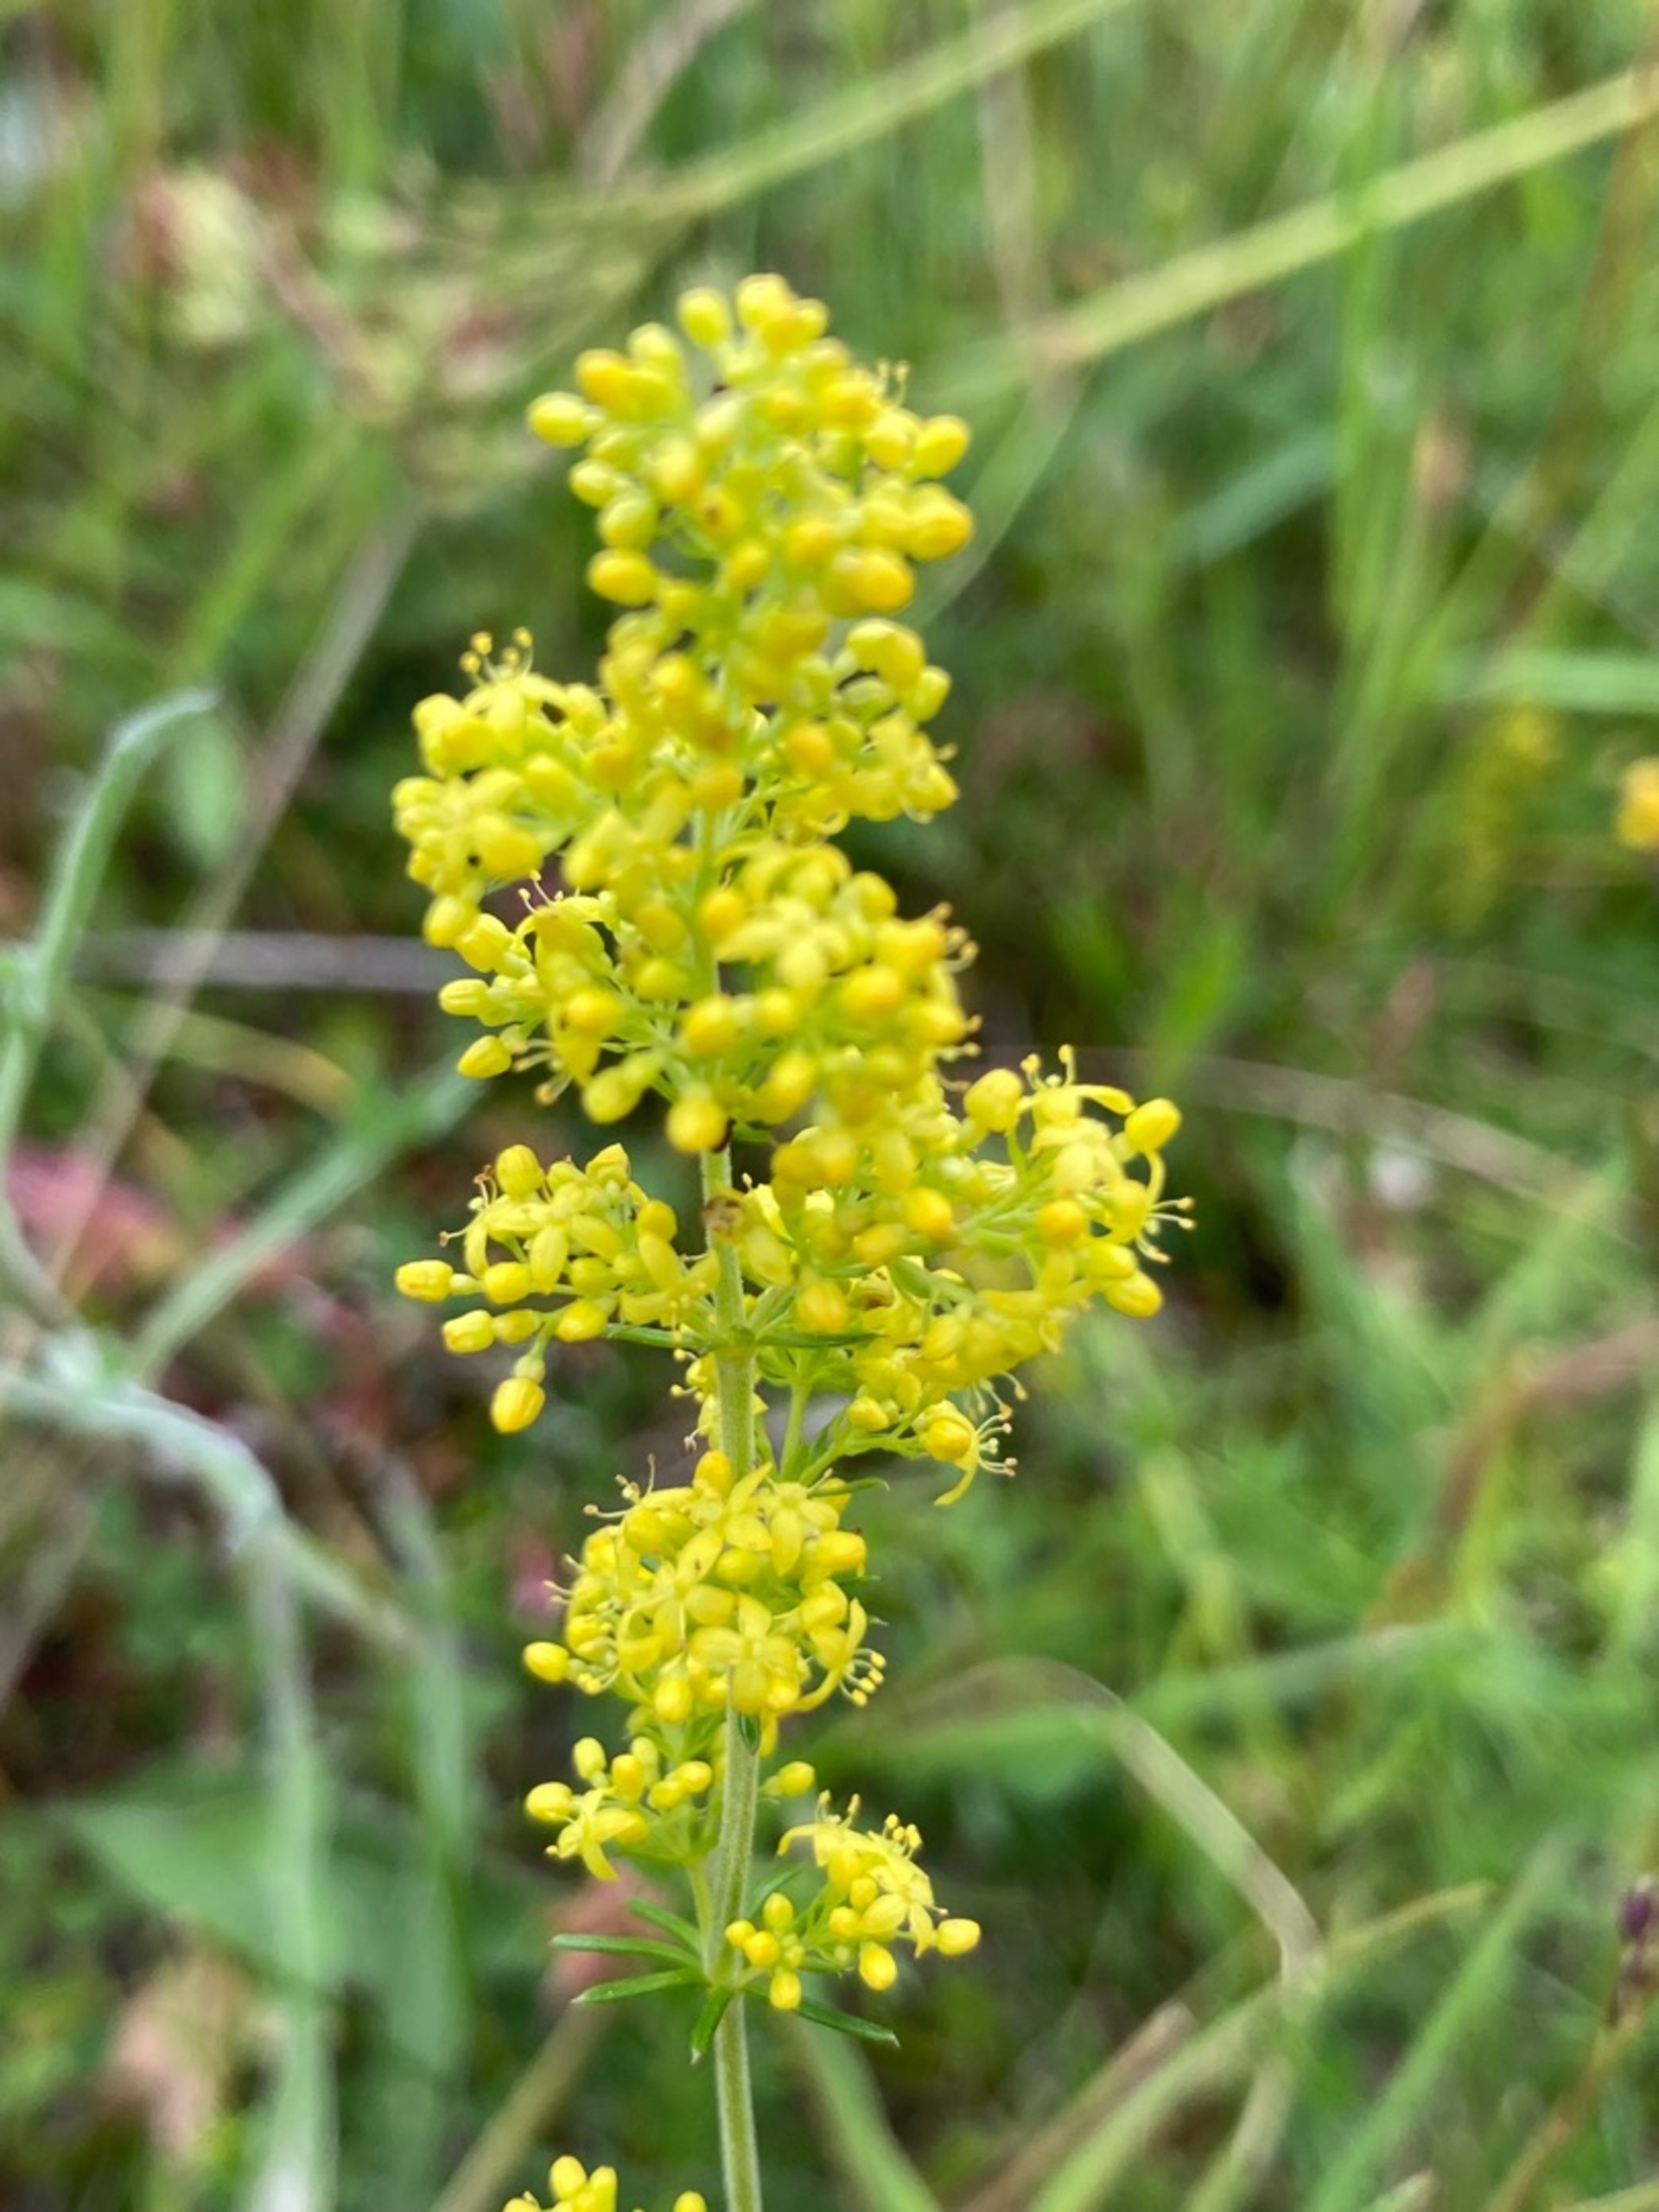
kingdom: Plantae
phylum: Tracheophyta
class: Magnoliopsida
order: Gentianales
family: Rubiaceae
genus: Galium
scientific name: Galium verum
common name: Gul snerre
